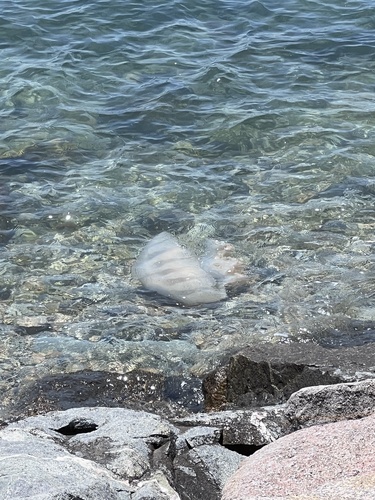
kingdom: Animalia
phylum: Cnidaria
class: Scyphozoa
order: Rhizostomeae
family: Rhizostomatidae
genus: Rhopilema
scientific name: Rhopilema hispidum
